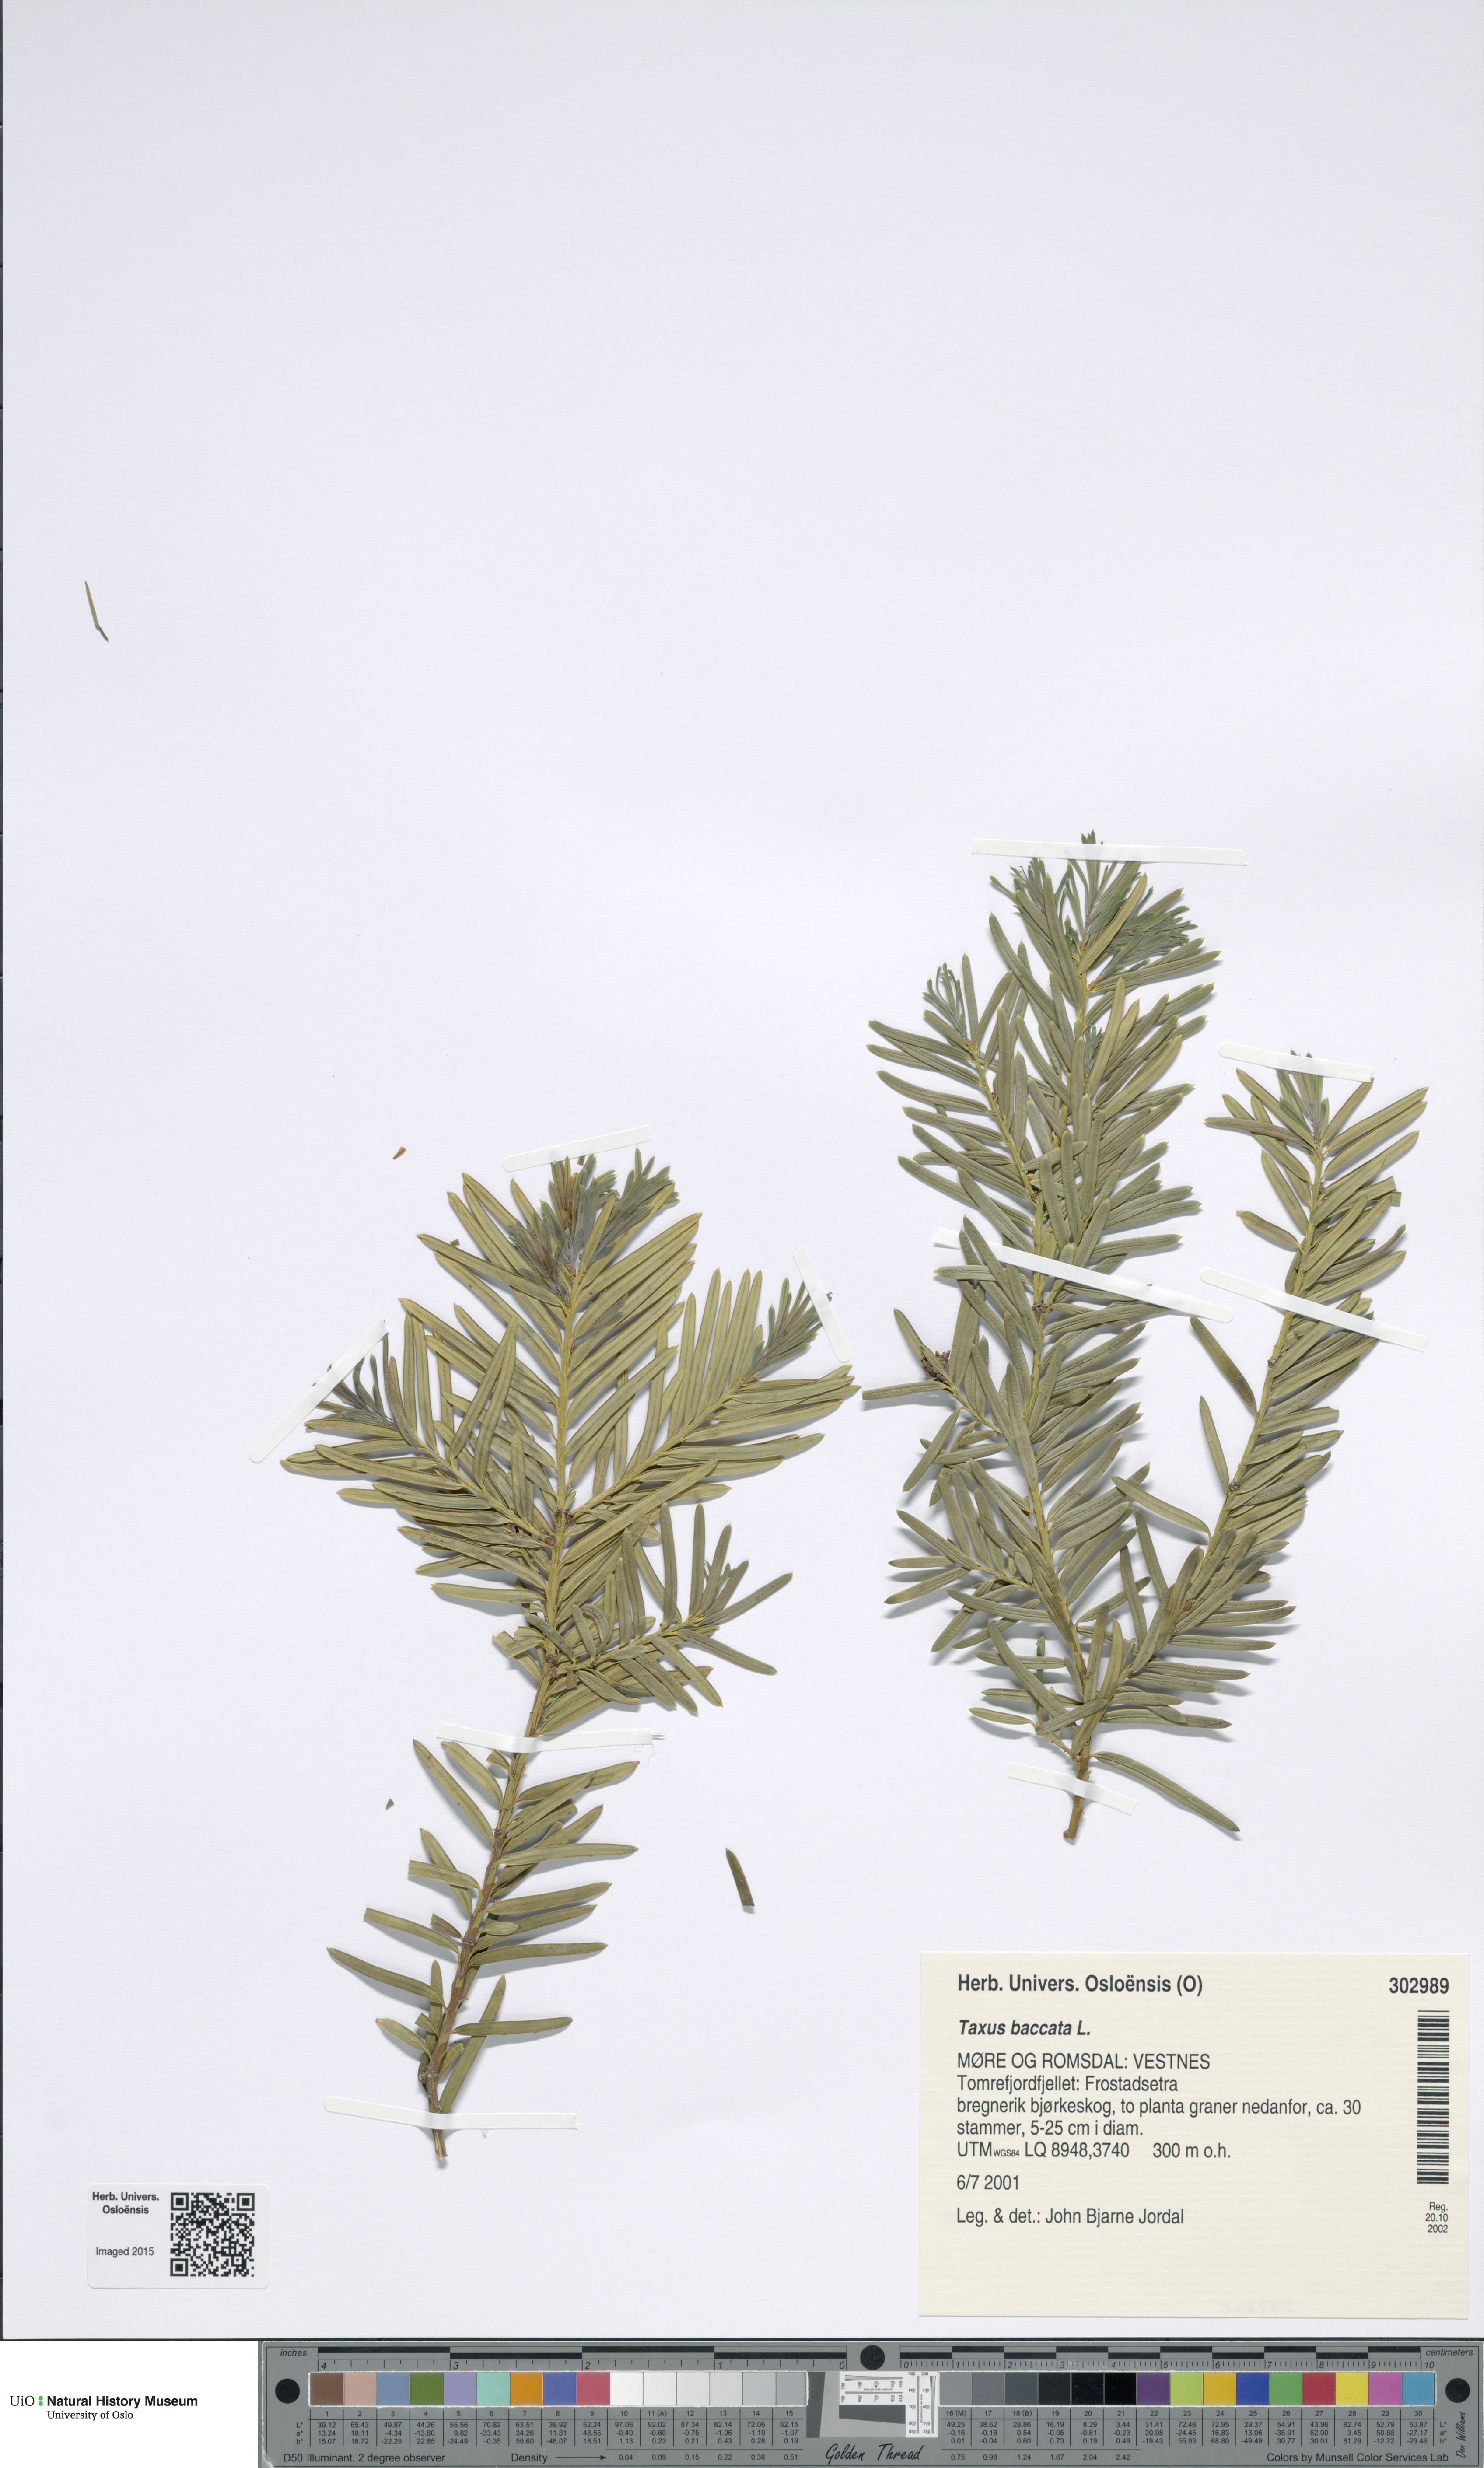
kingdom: Plantae
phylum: Tracheophyta
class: Pinopsida
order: Pinales
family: Taxaceae
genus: Taxus
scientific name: Taxus baccata
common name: Yew
